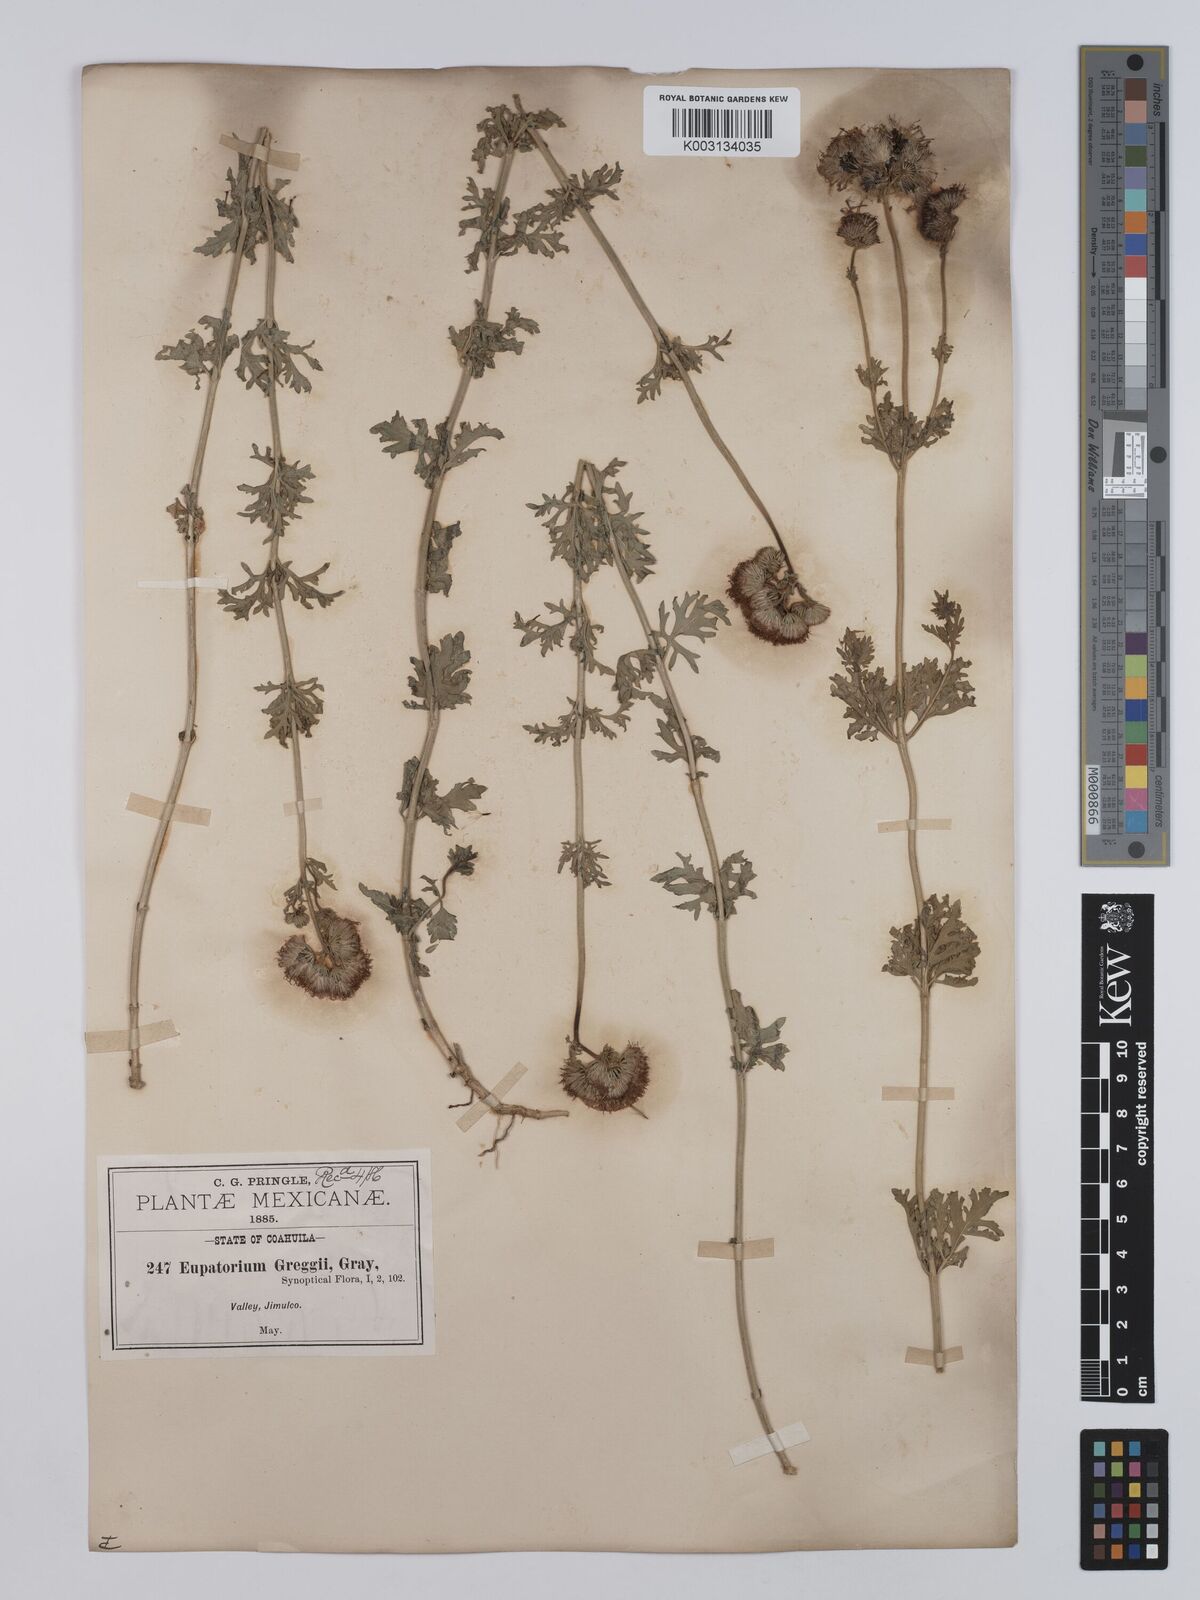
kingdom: Plantae
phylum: Tracheophyta
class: Magnoliopsida
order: Asterales
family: Asteraceae
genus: Conoclinium
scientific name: Conoclinium dissectum
